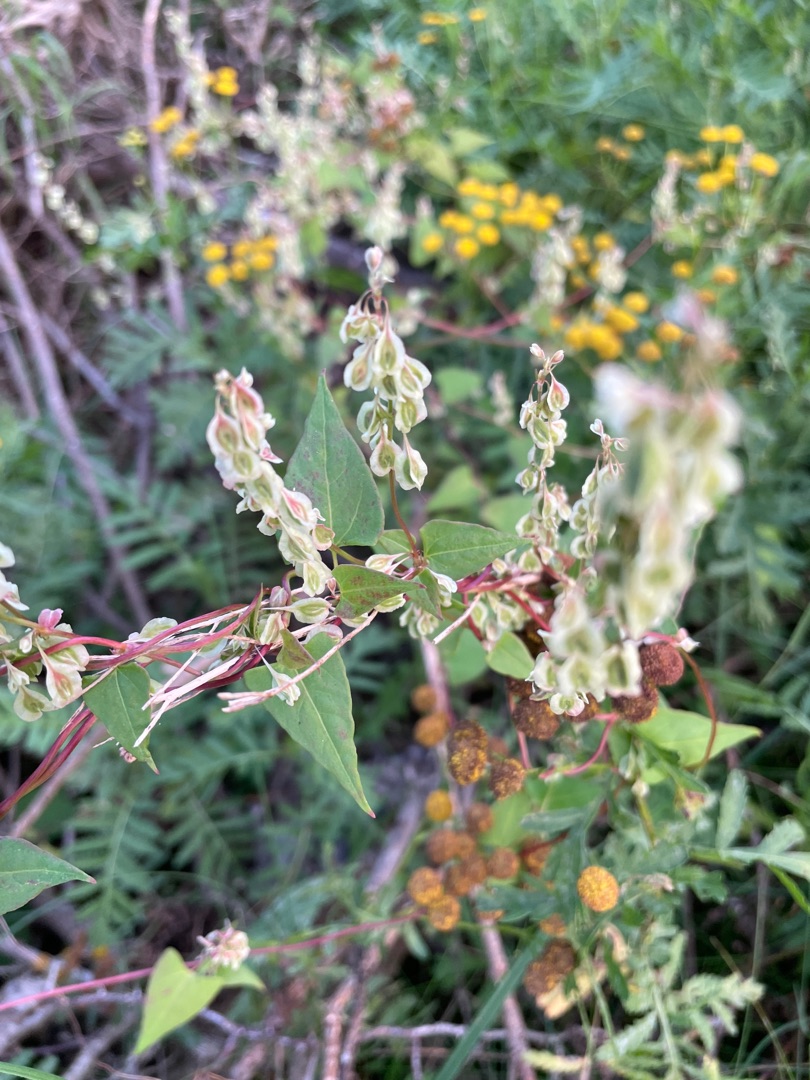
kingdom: Plantae
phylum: Tracheophyta
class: Magnoliopsida
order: Caryophyllales
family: Polygonaceae
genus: Fallopia
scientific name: Fallopia dumetorum
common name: Vinge-pileurt
